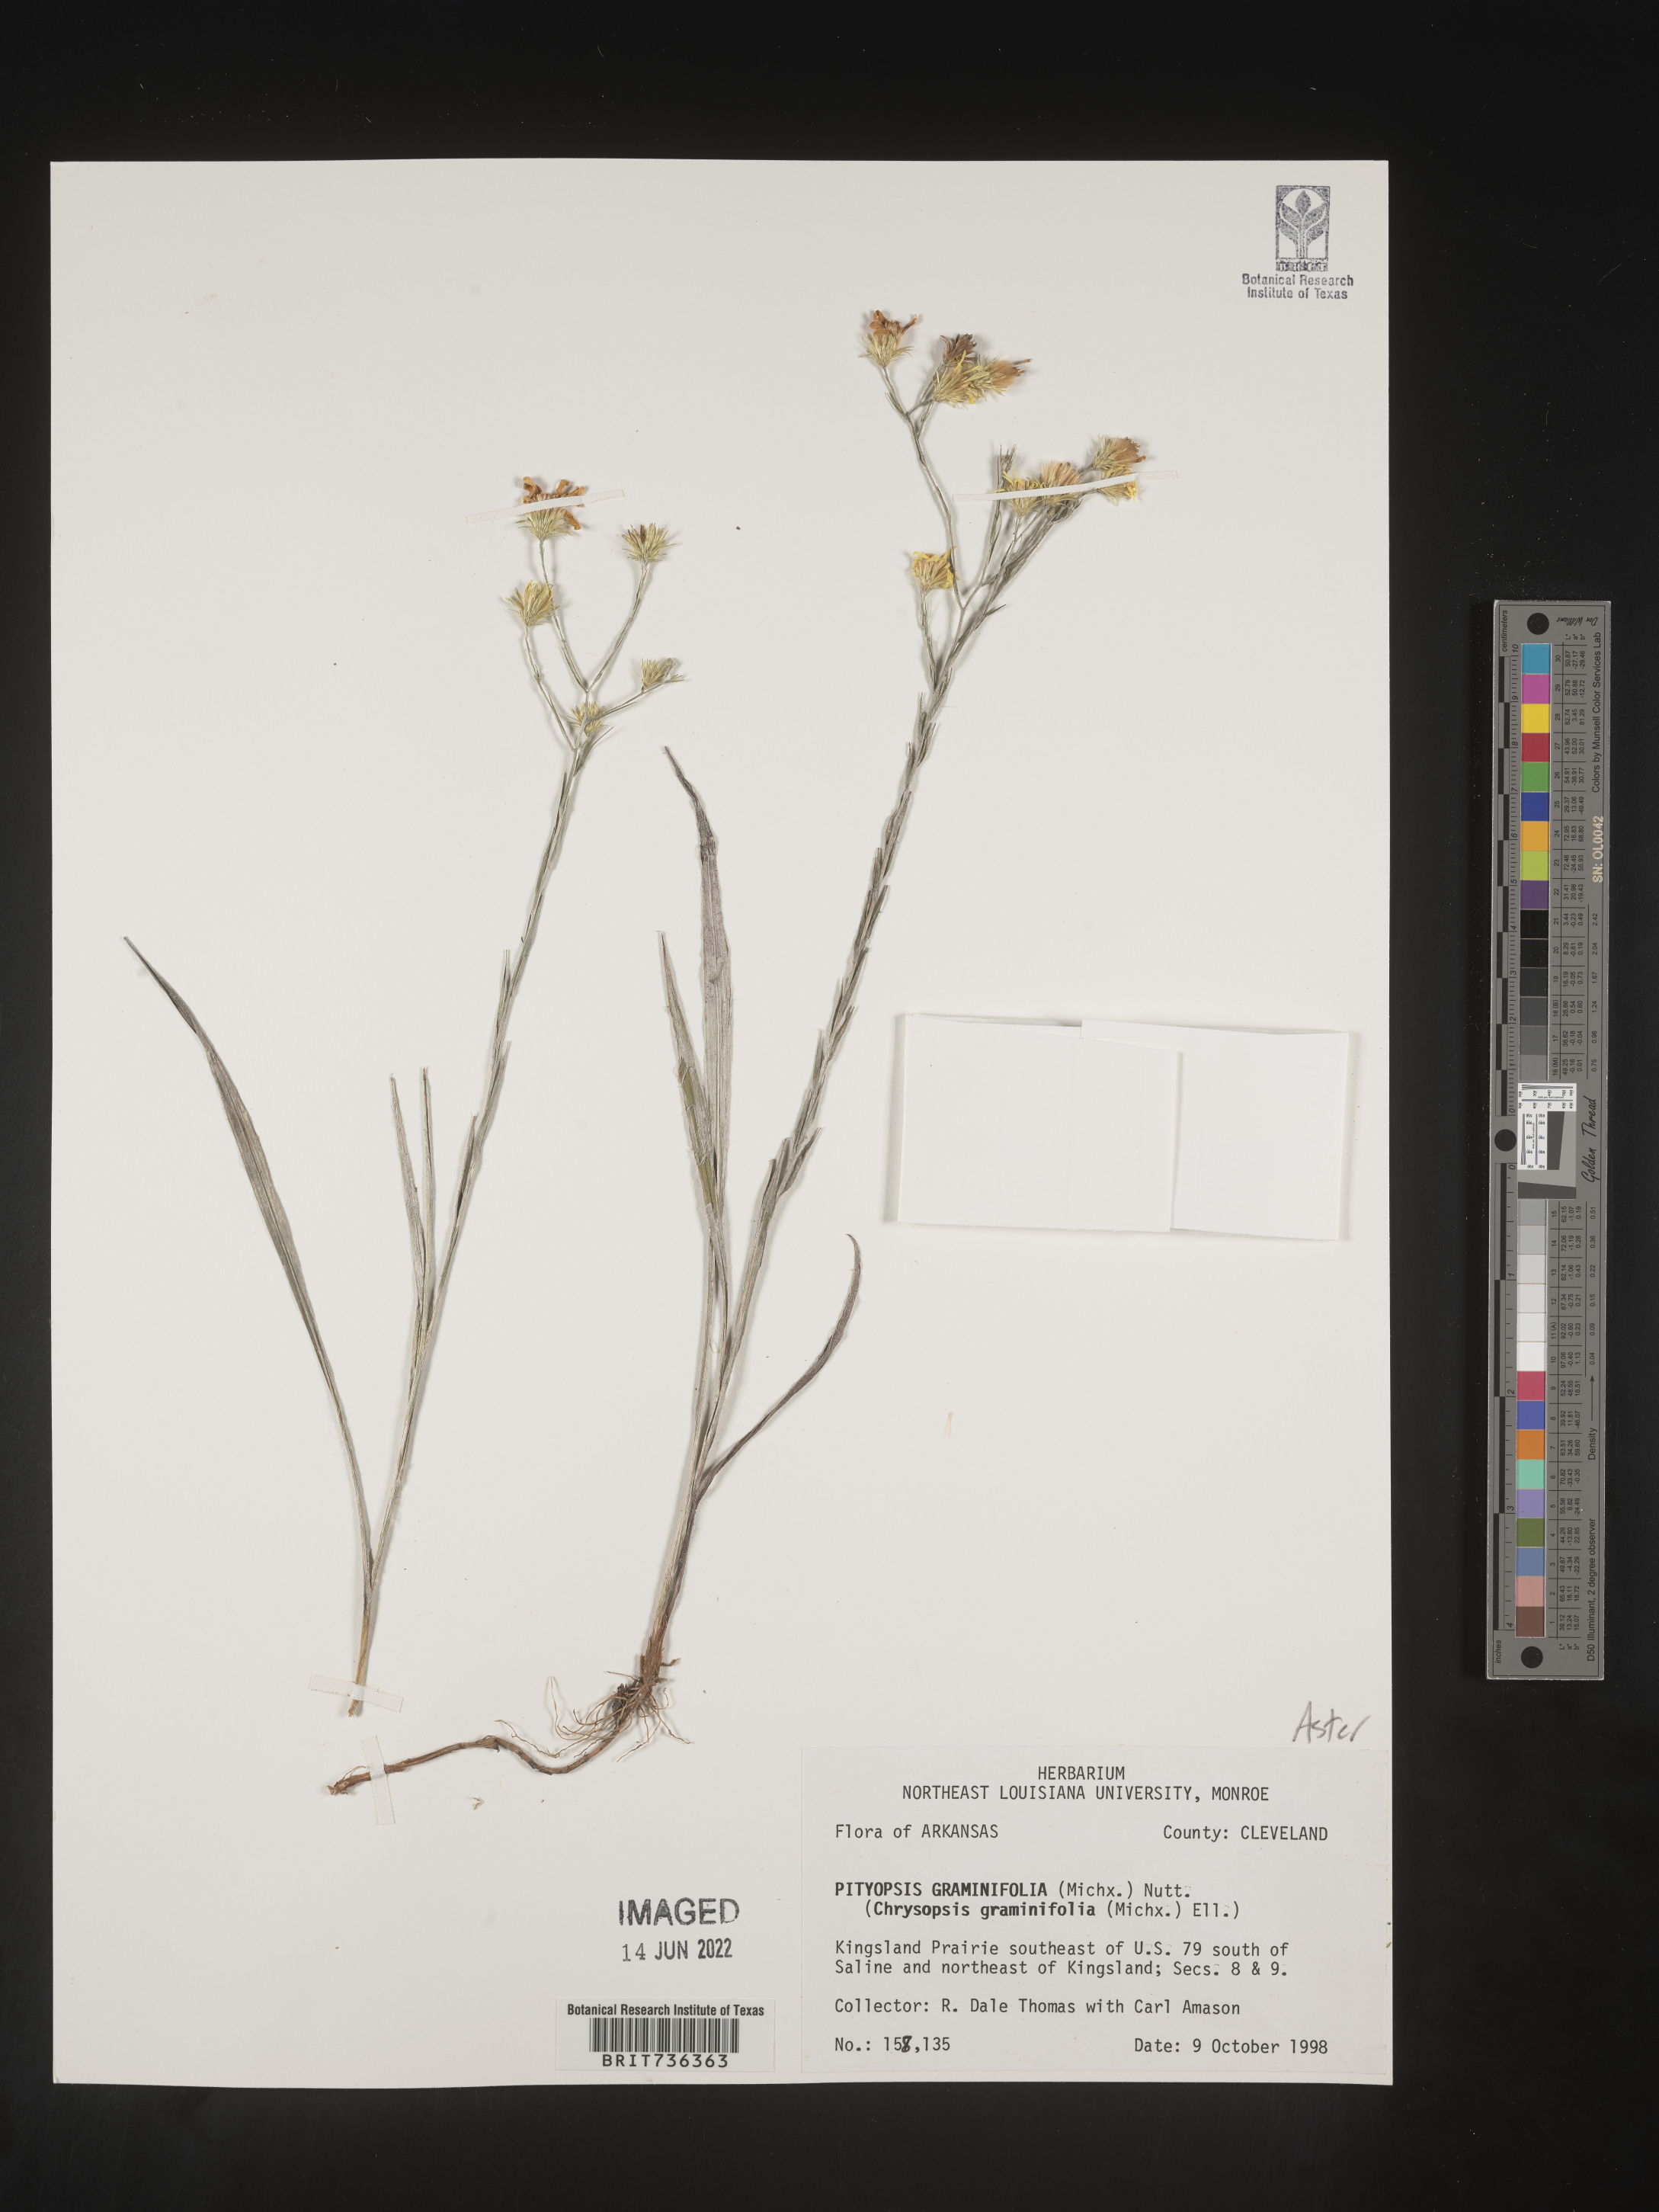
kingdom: Plantae
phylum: Tracheophyta
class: Magnoliopsida
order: Asterales
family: Asteraceae
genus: Pityopsis
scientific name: Pityopsis tenuifolia
